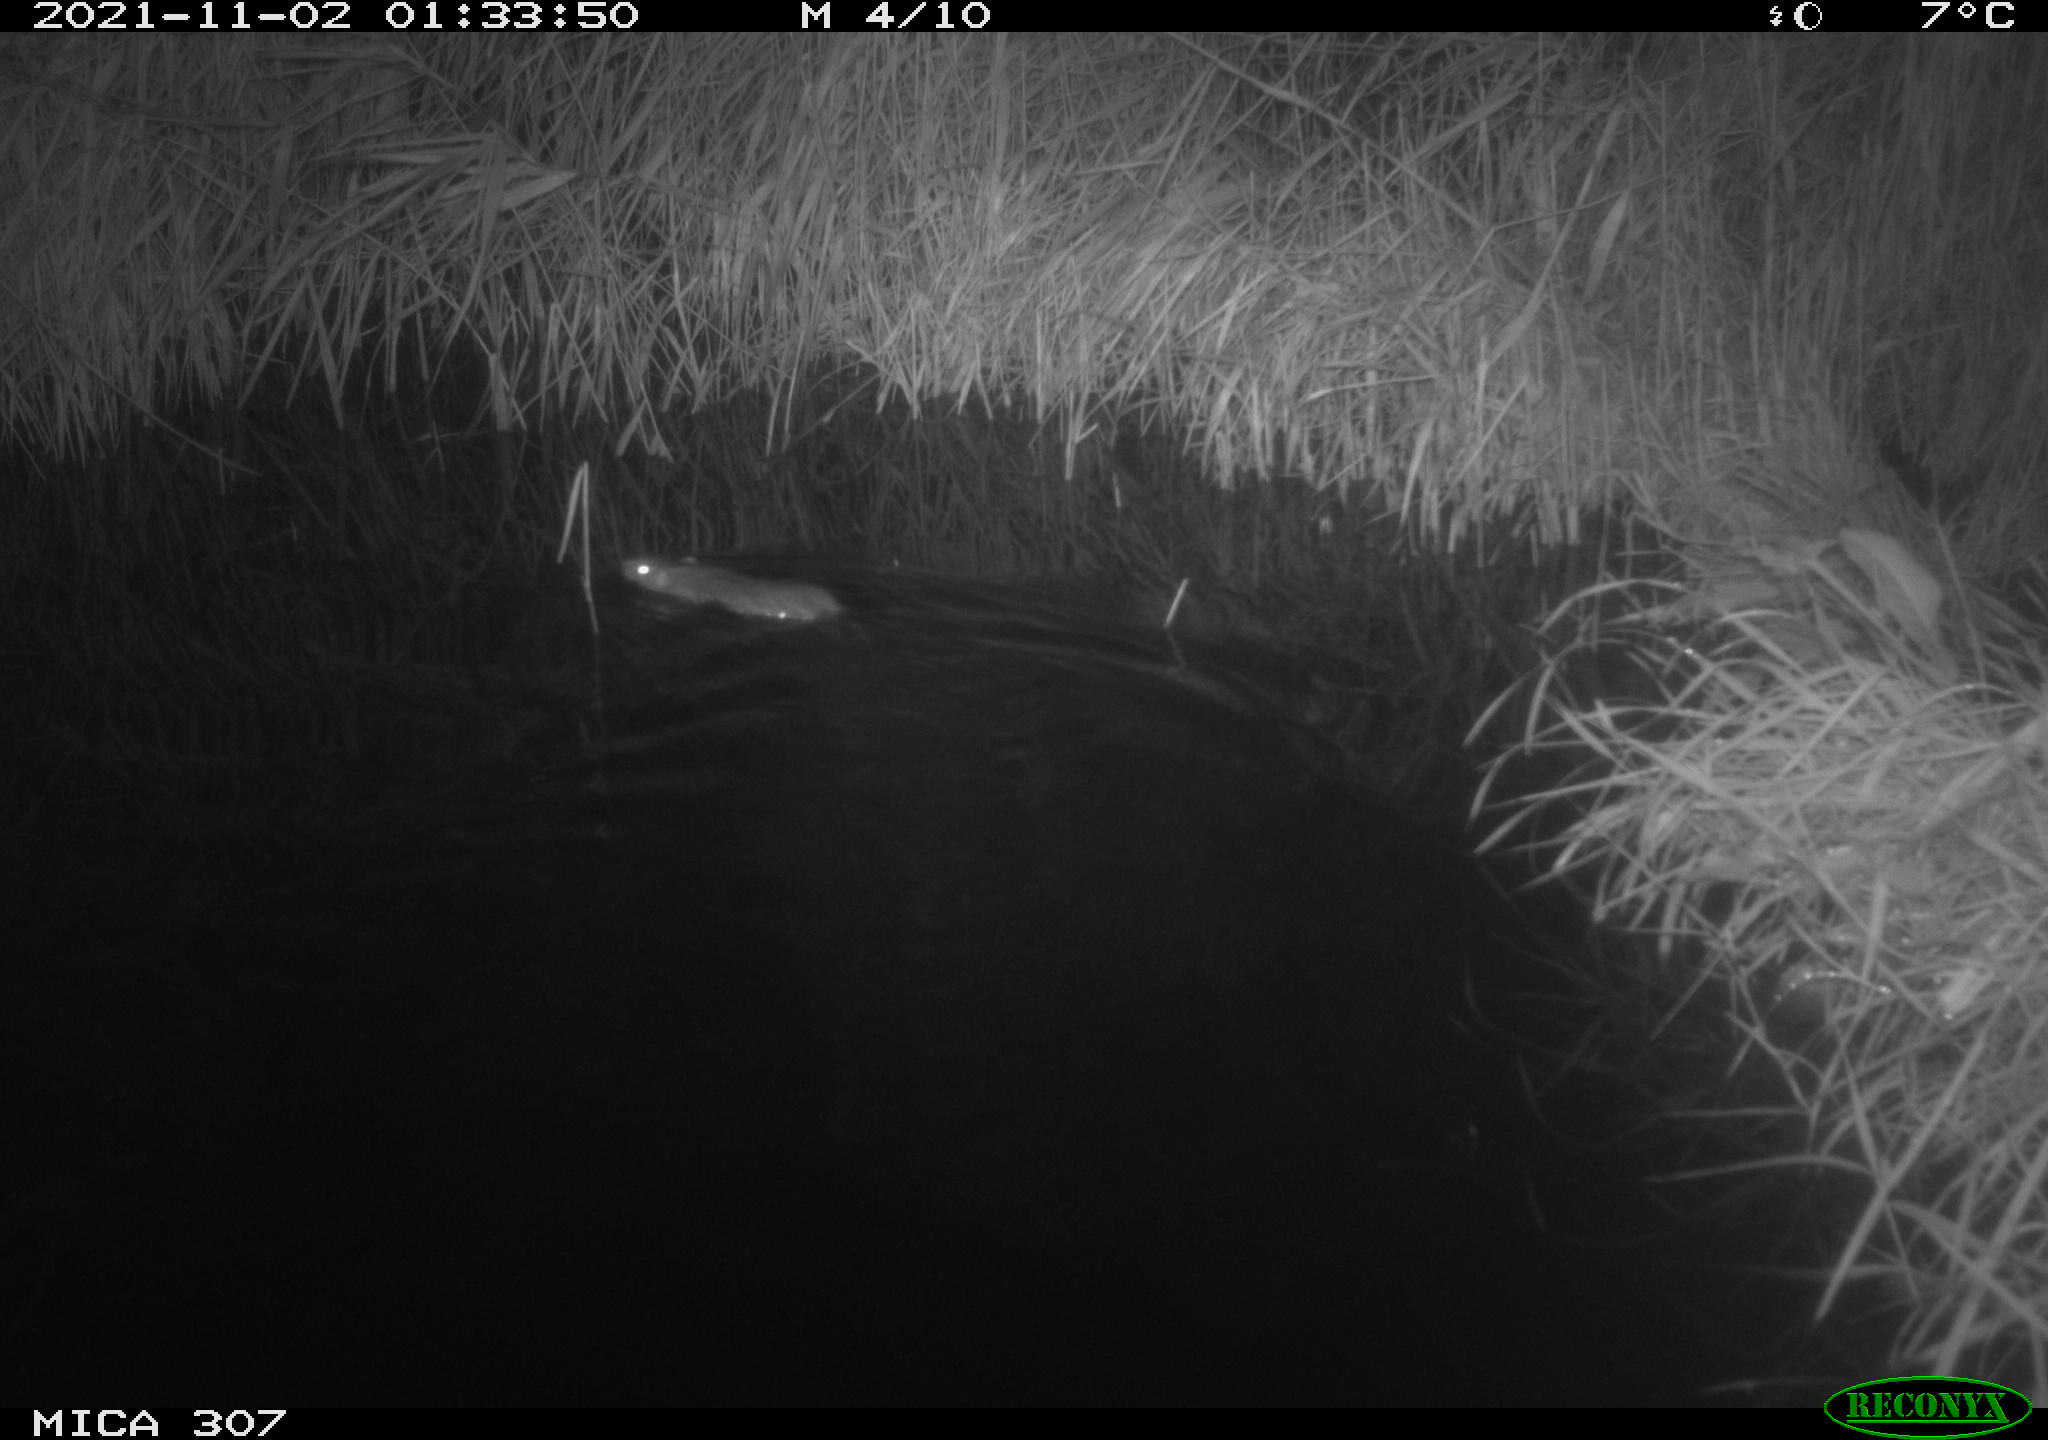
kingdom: Animalia
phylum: Chordata
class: Mammalia
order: Rodentia
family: Muridae
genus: Rattus
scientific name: Rattus norvegicus
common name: Brown rat
